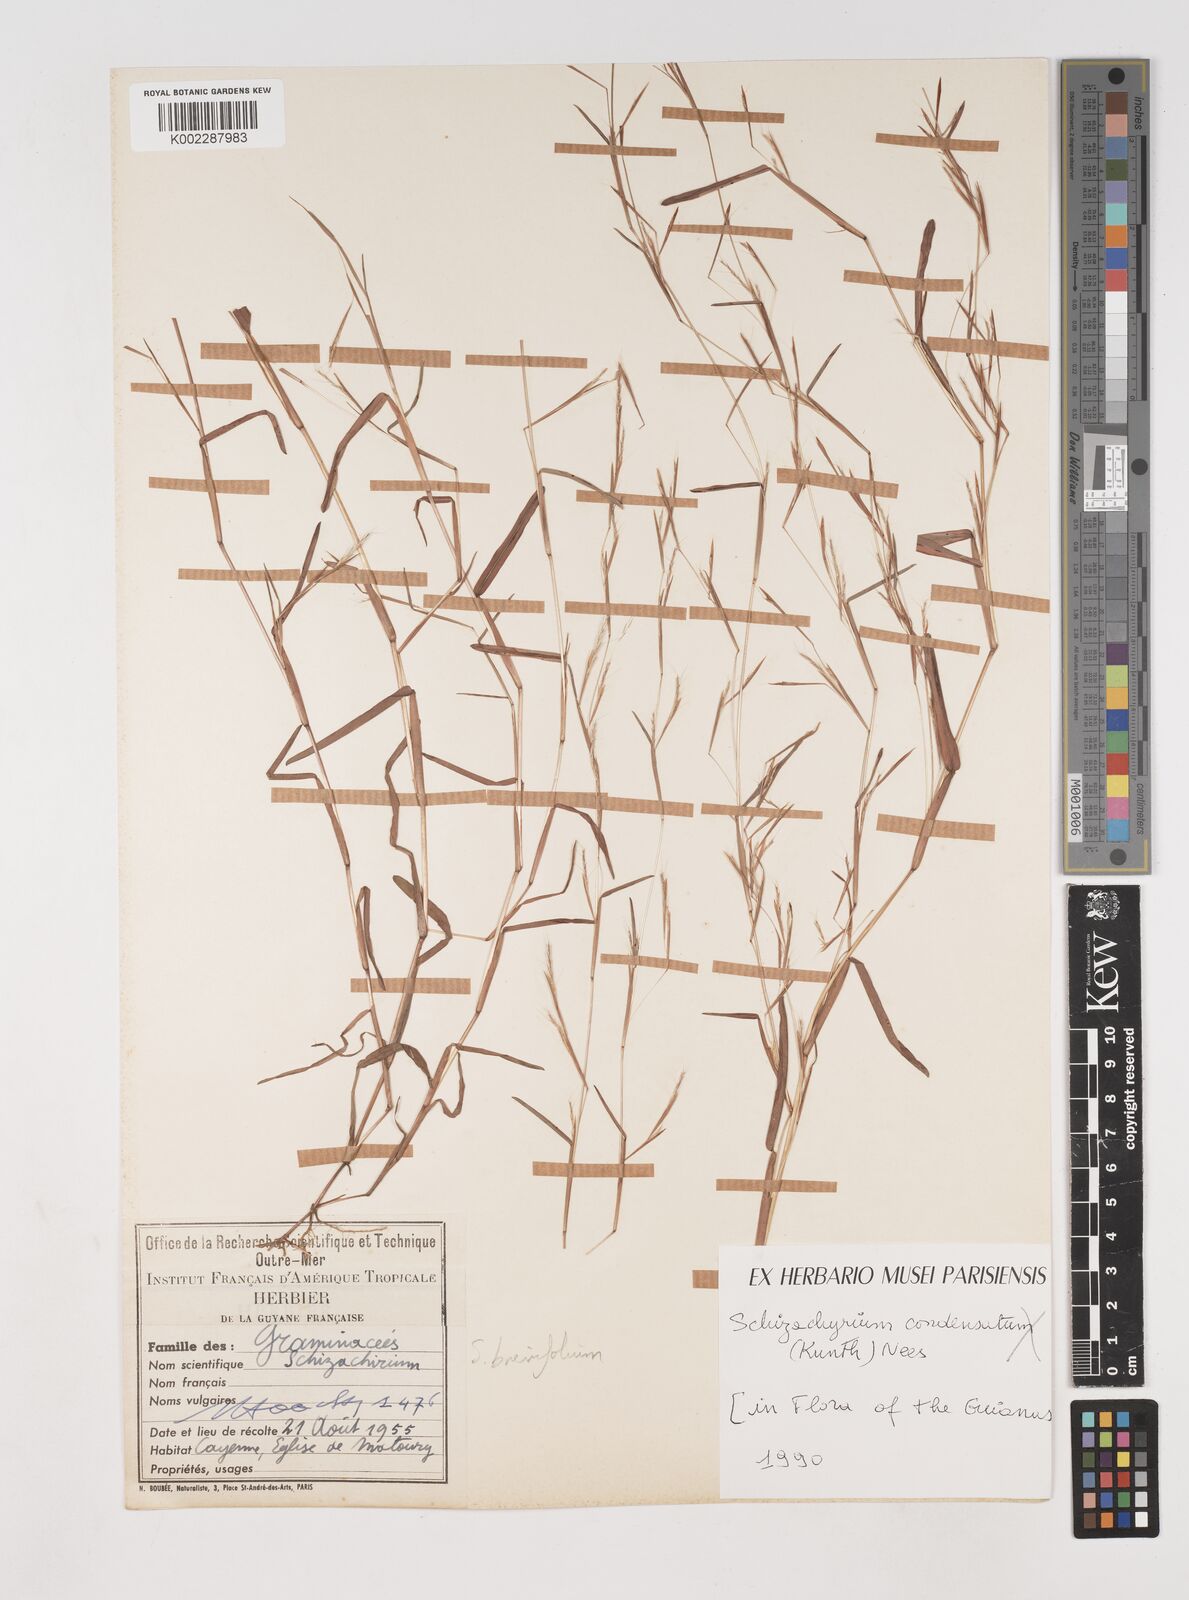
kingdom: Plantae
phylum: Tracheophyta
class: Liliopsida
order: Poales
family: Poaceae
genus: Schizachyrium
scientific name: Schizachyrium brevifolium
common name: Serillo dulce
